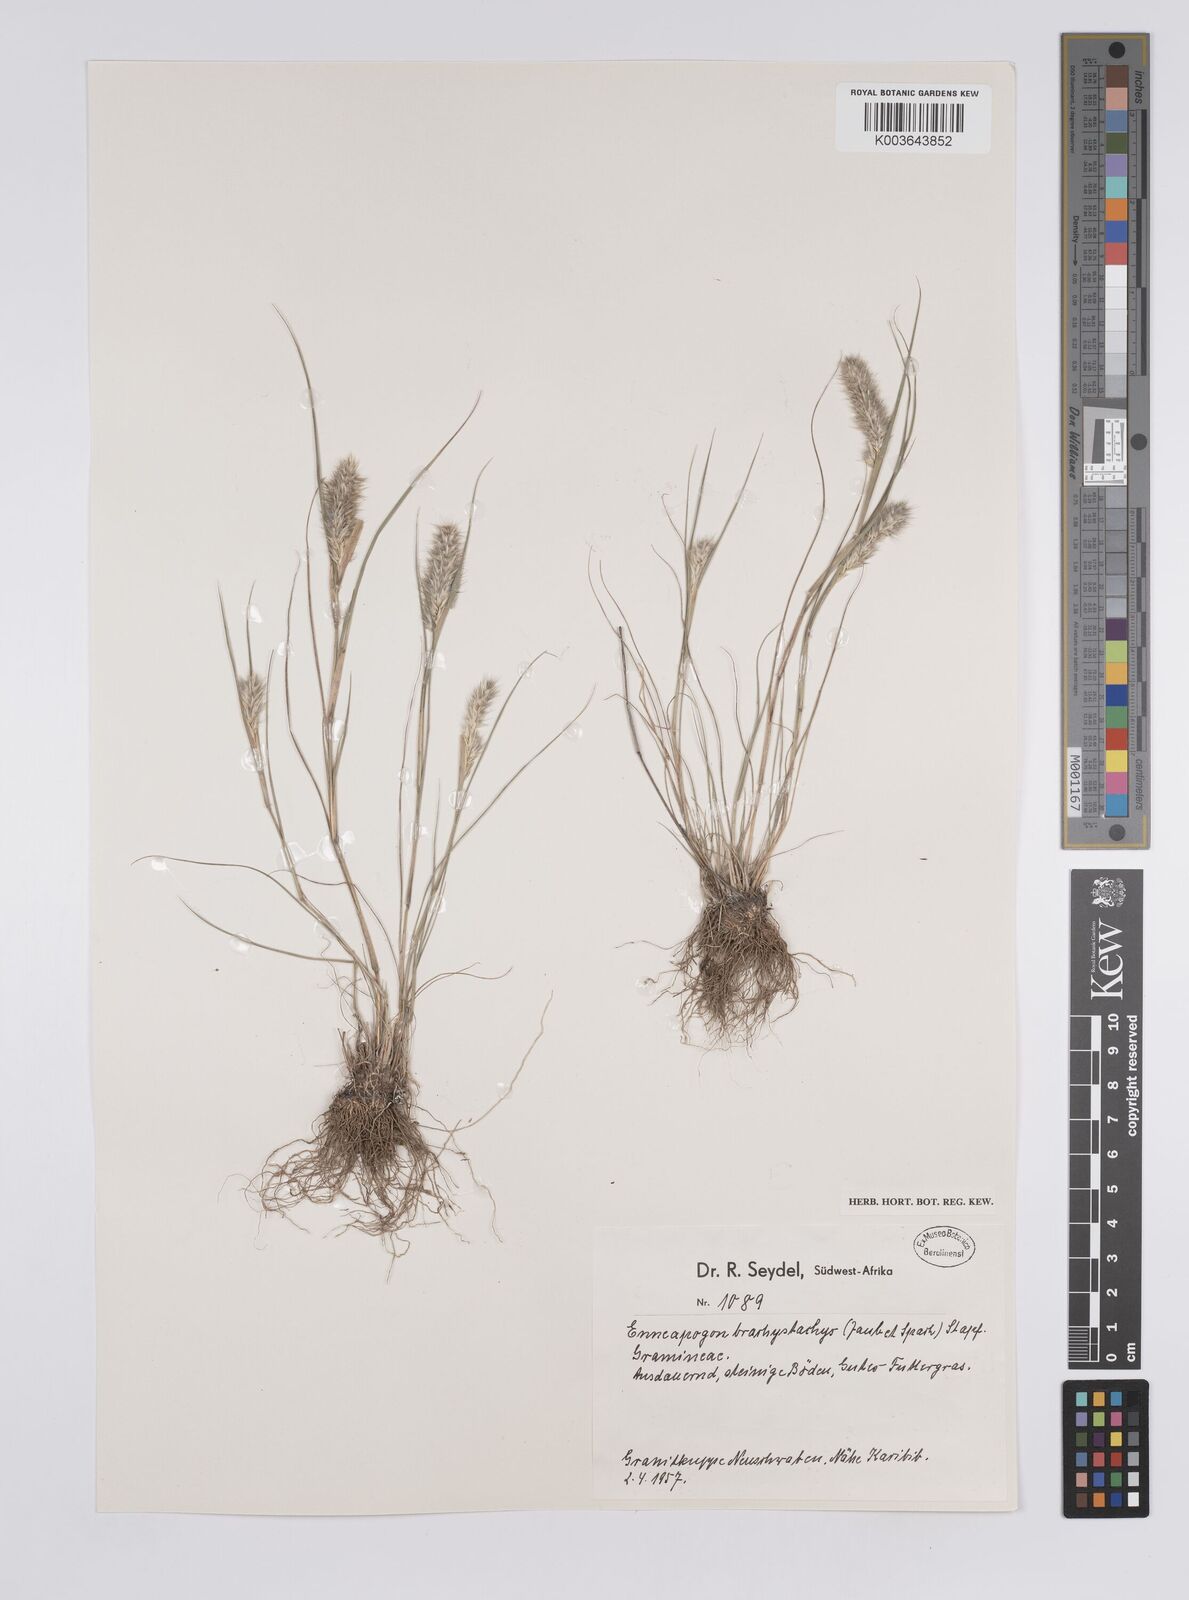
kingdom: Plantae
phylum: Tracheophyta
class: Liliopsida
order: Poales
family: Poaceae
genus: Enneapogon
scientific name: Enneapogon desvauxii
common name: Feather pappus grass
